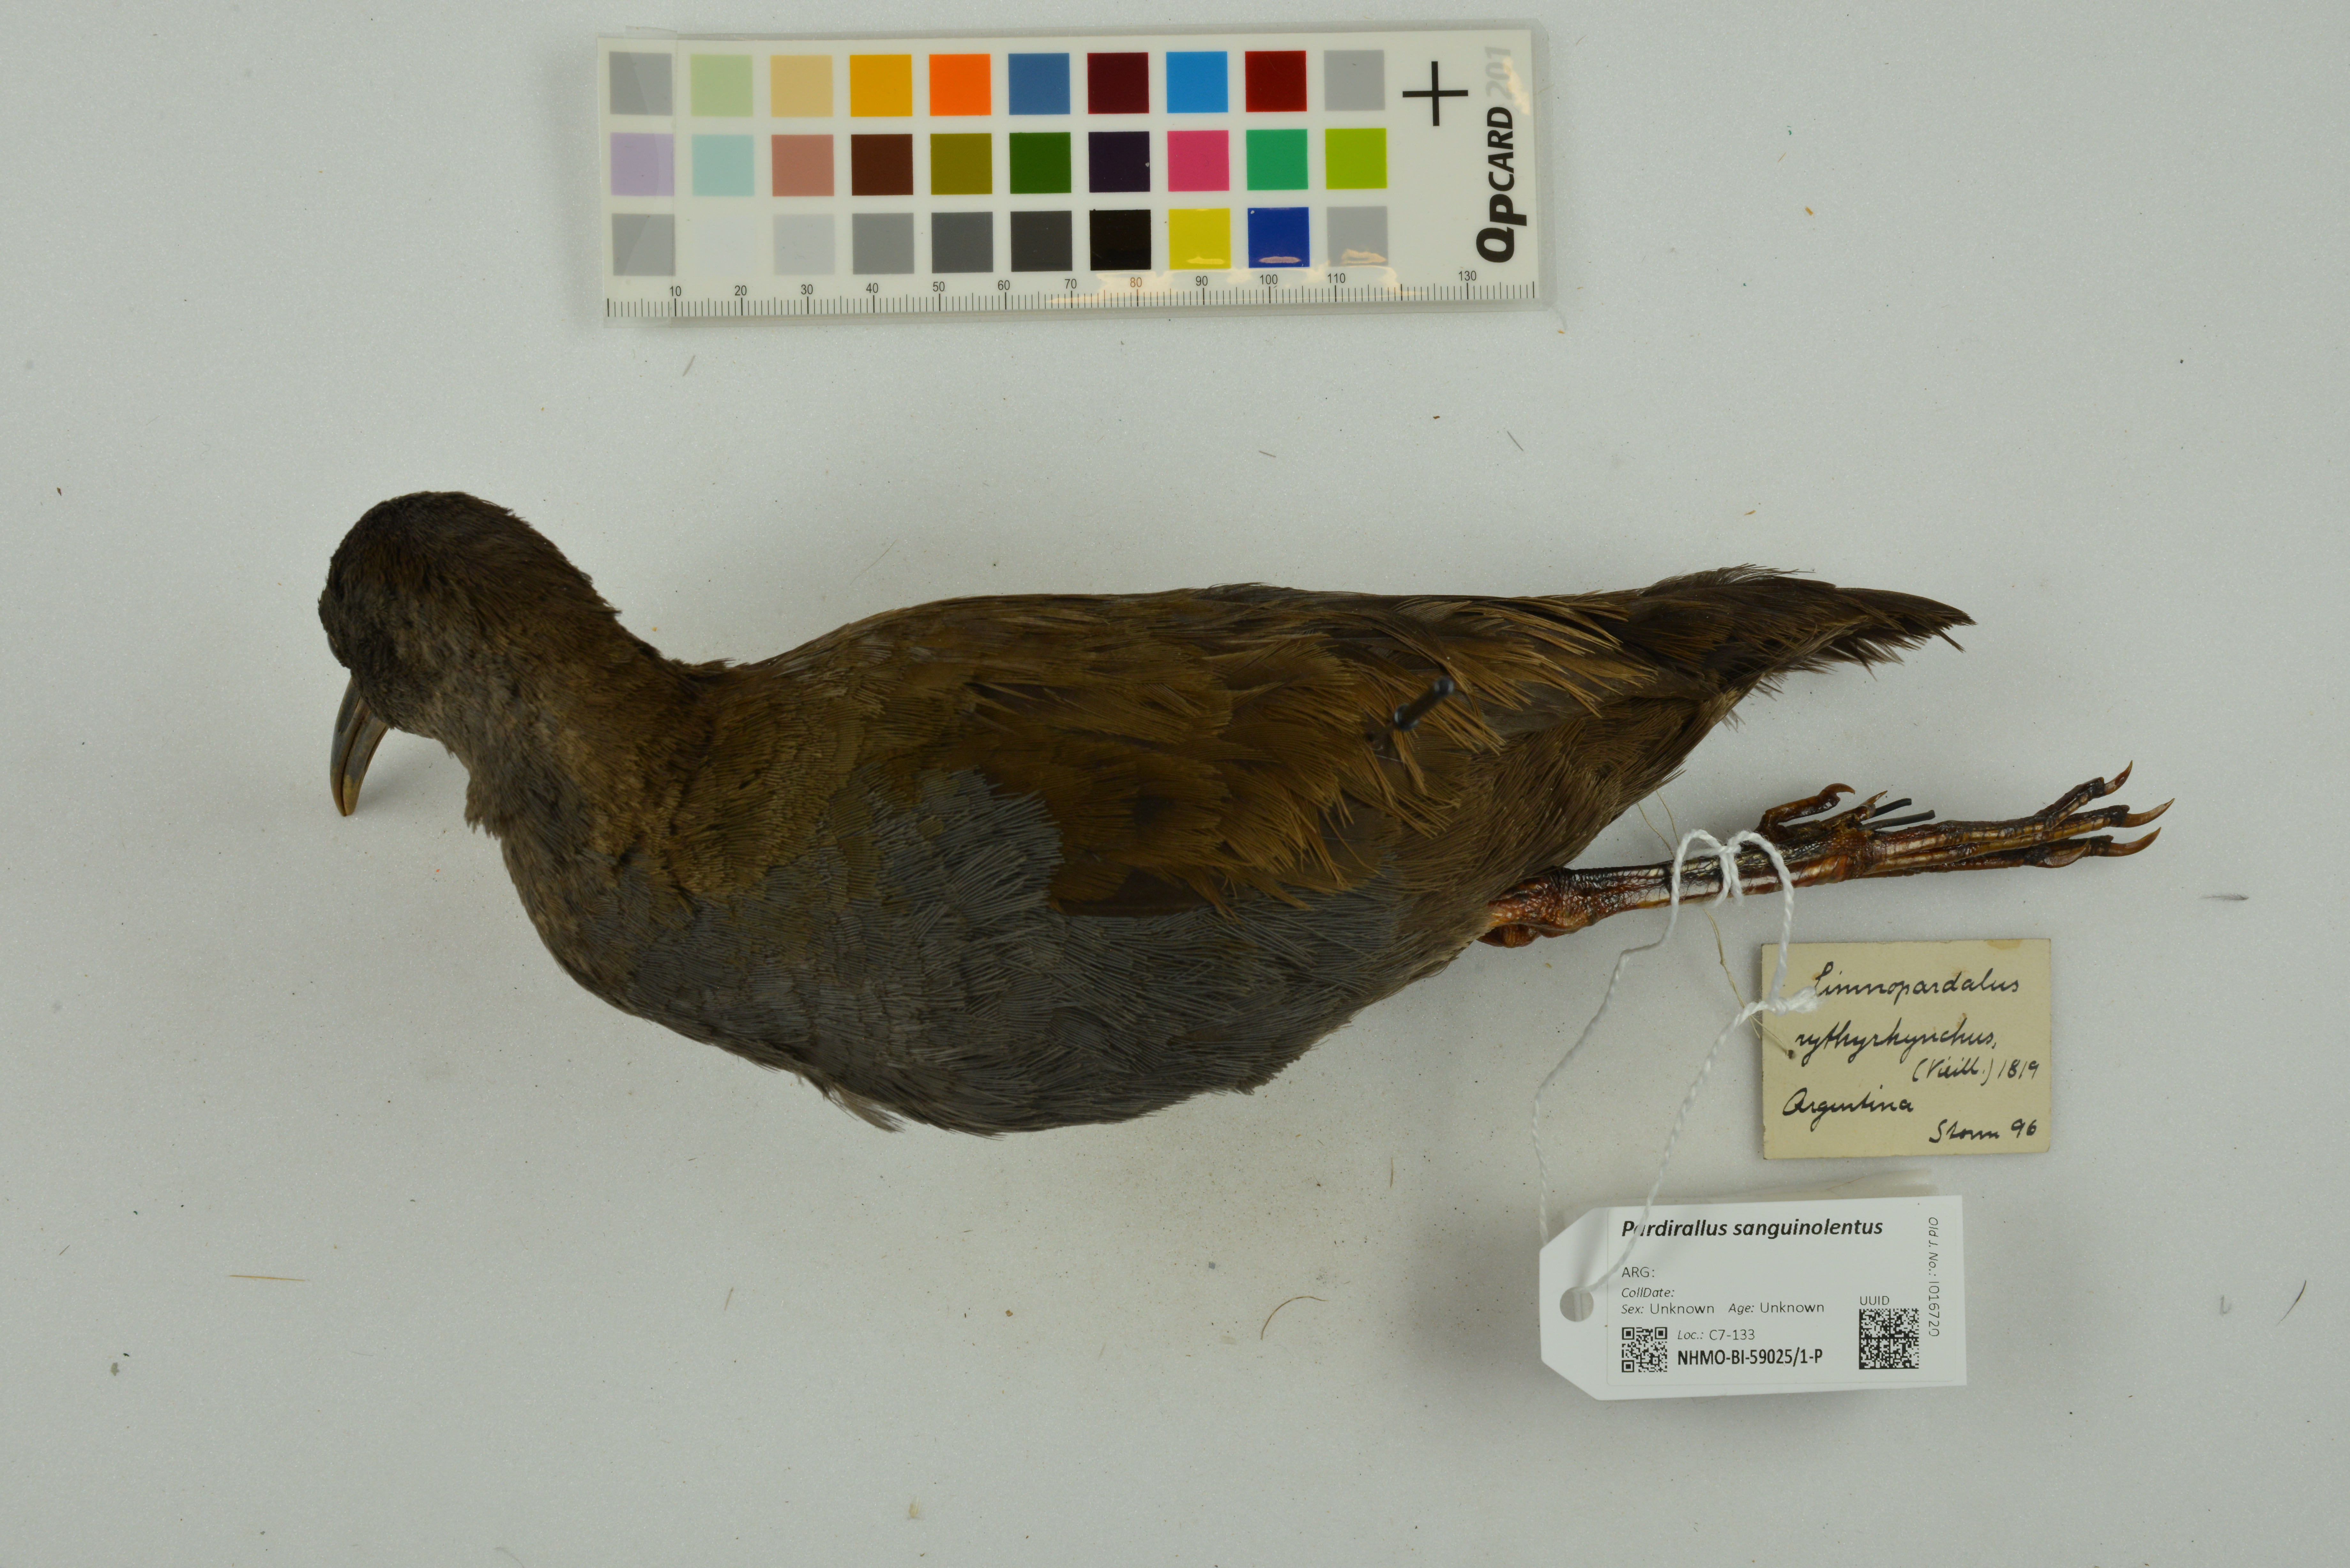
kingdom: Animalia
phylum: Chordata
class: Aves
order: Gruiformes
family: Rallidae
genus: Pardirallus
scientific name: Pardirallus sanguinolentus
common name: Plumbeous rail
